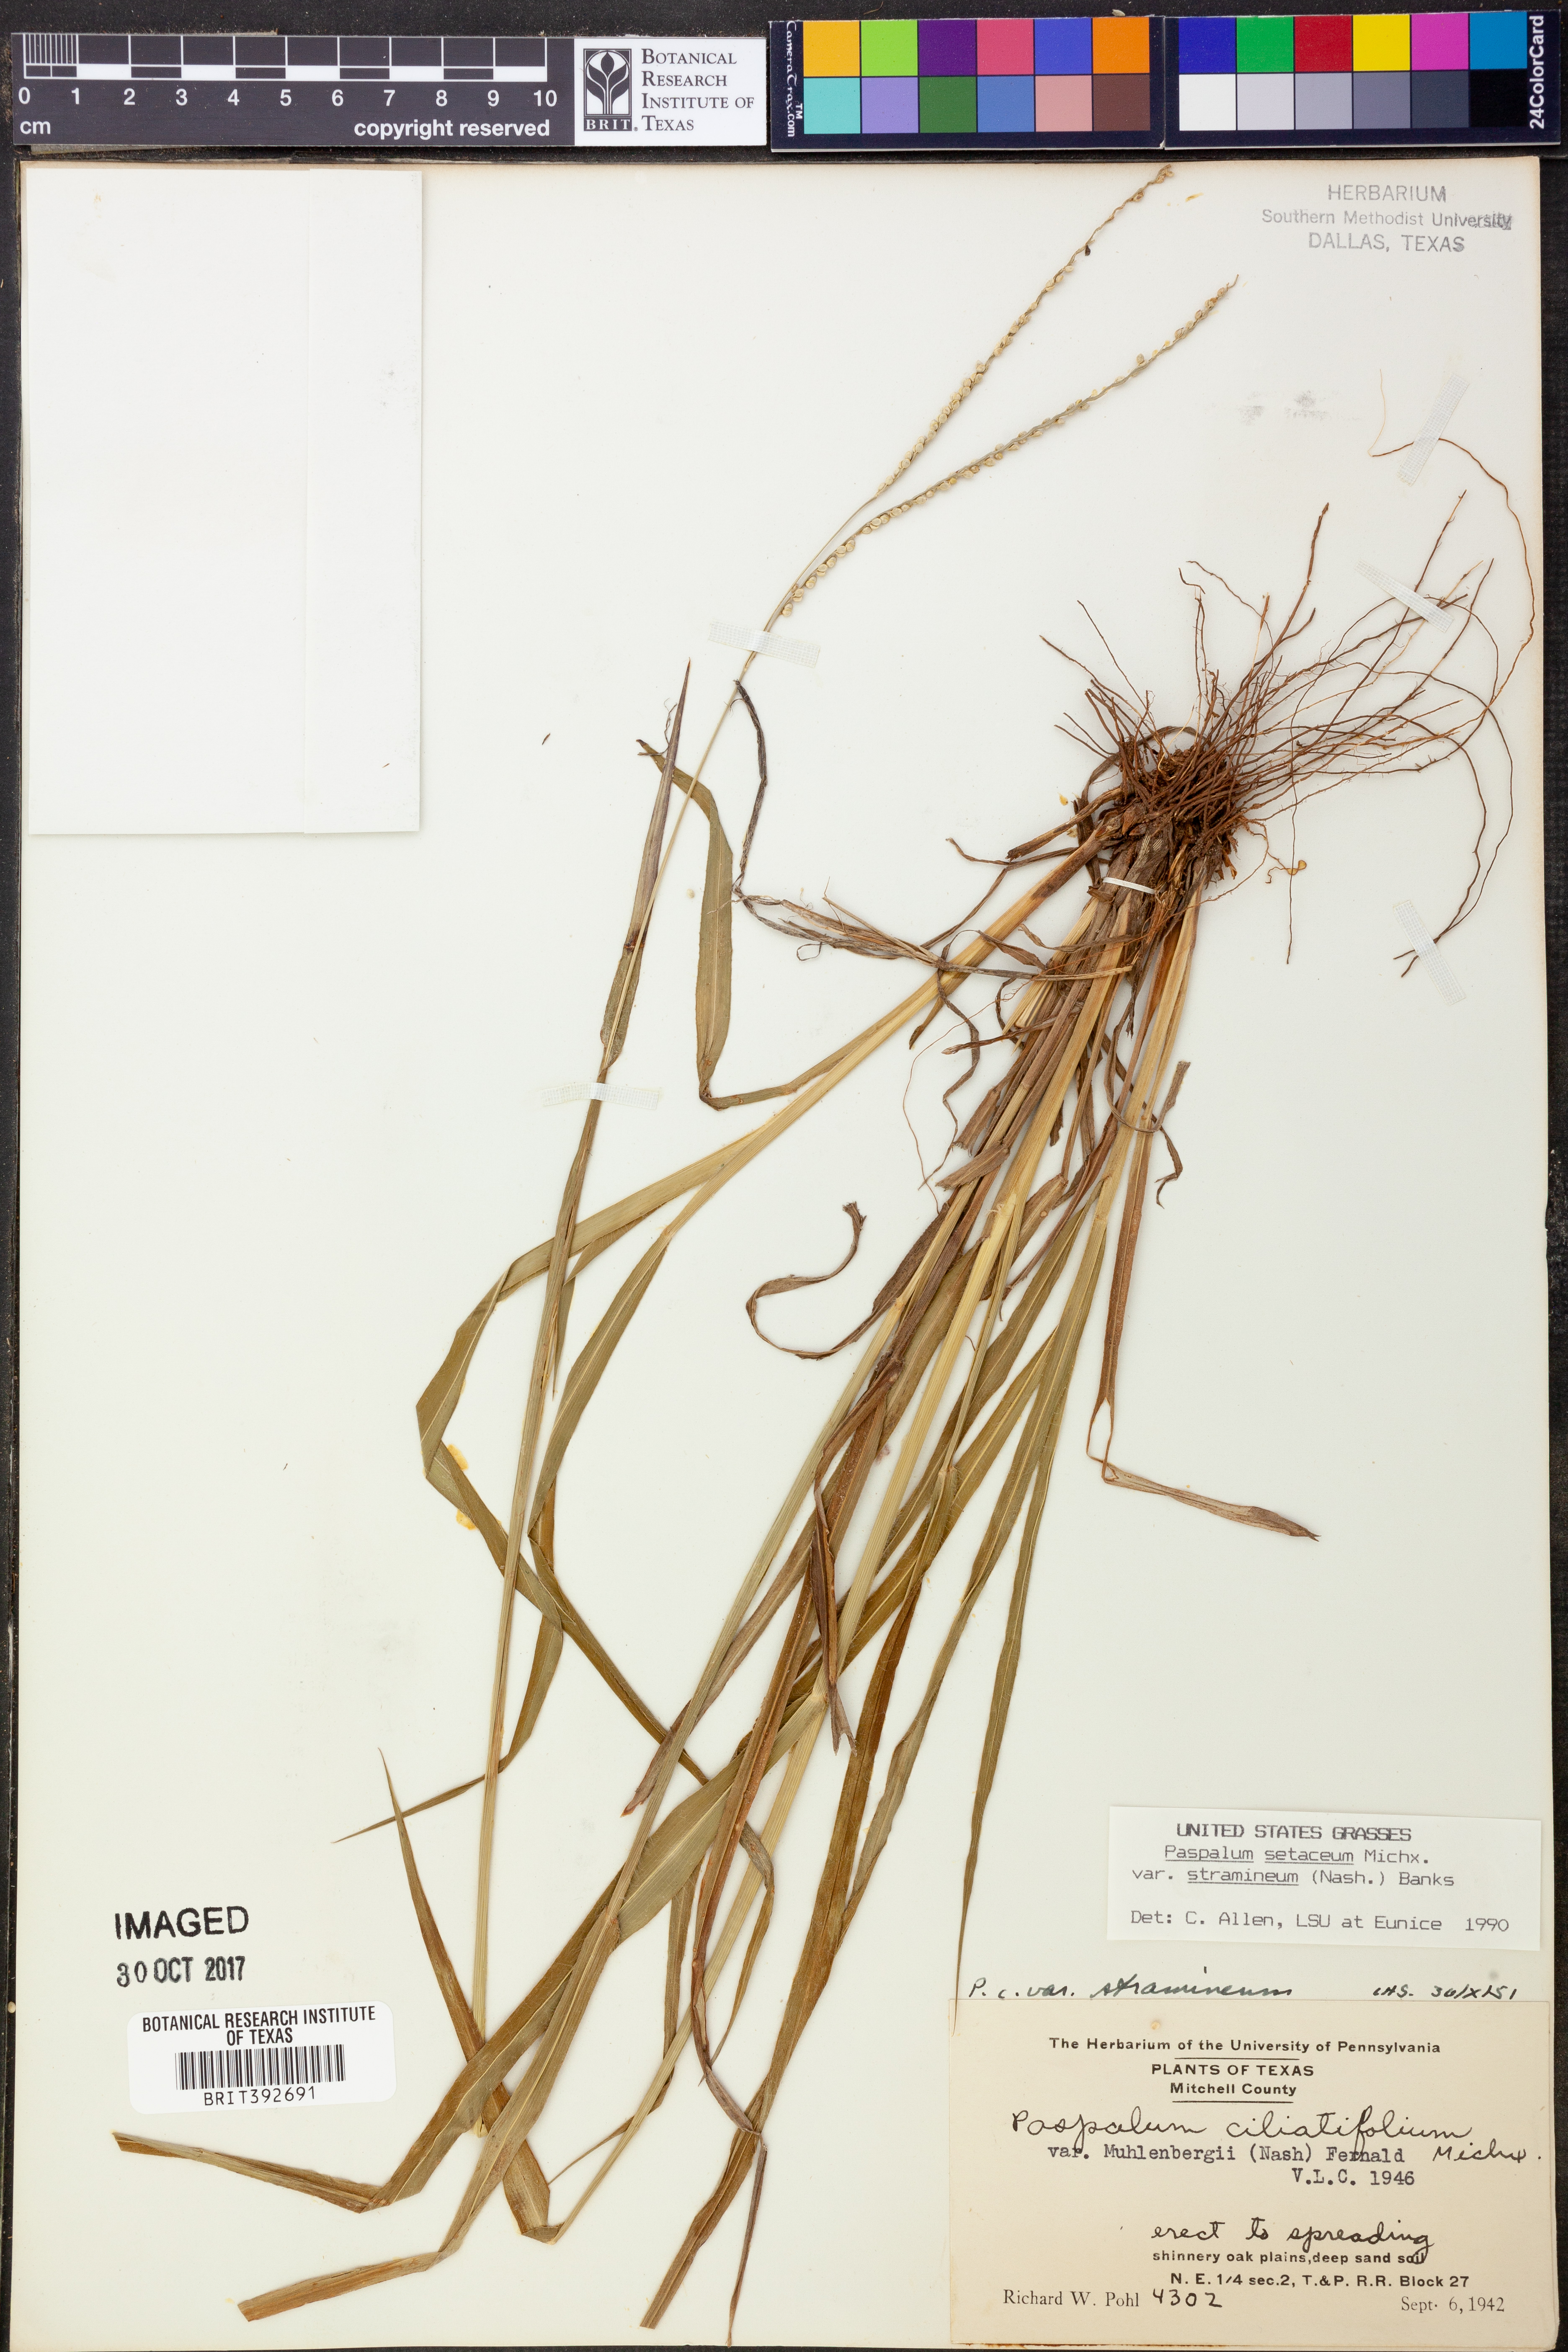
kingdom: Plantae
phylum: Tracheophyta
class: Liliopsida
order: Poales
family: Poaceae
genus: Paspalum
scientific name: Paspalum setaceum
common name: Slender paspalum
